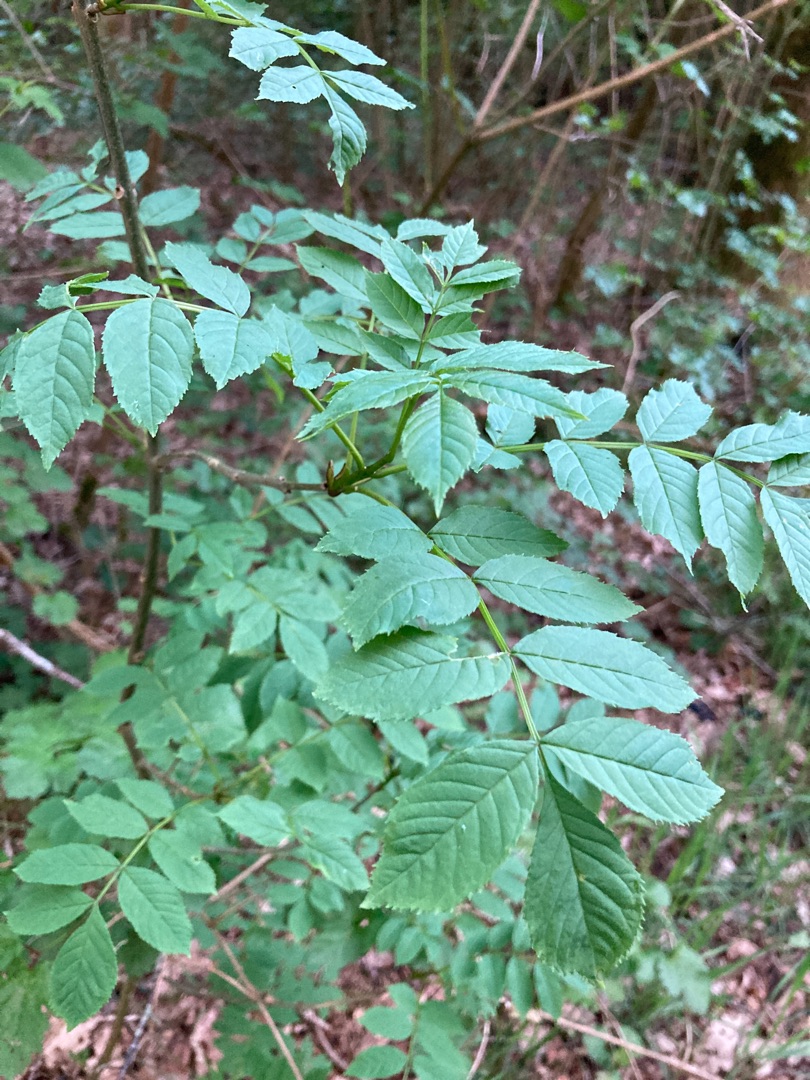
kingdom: Plantae
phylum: Tracheophyta
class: Magnoliopsida
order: Lamiales
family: Oleaceae
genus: Fraxinus
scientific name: Fraxinus excelsior
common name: Ask
